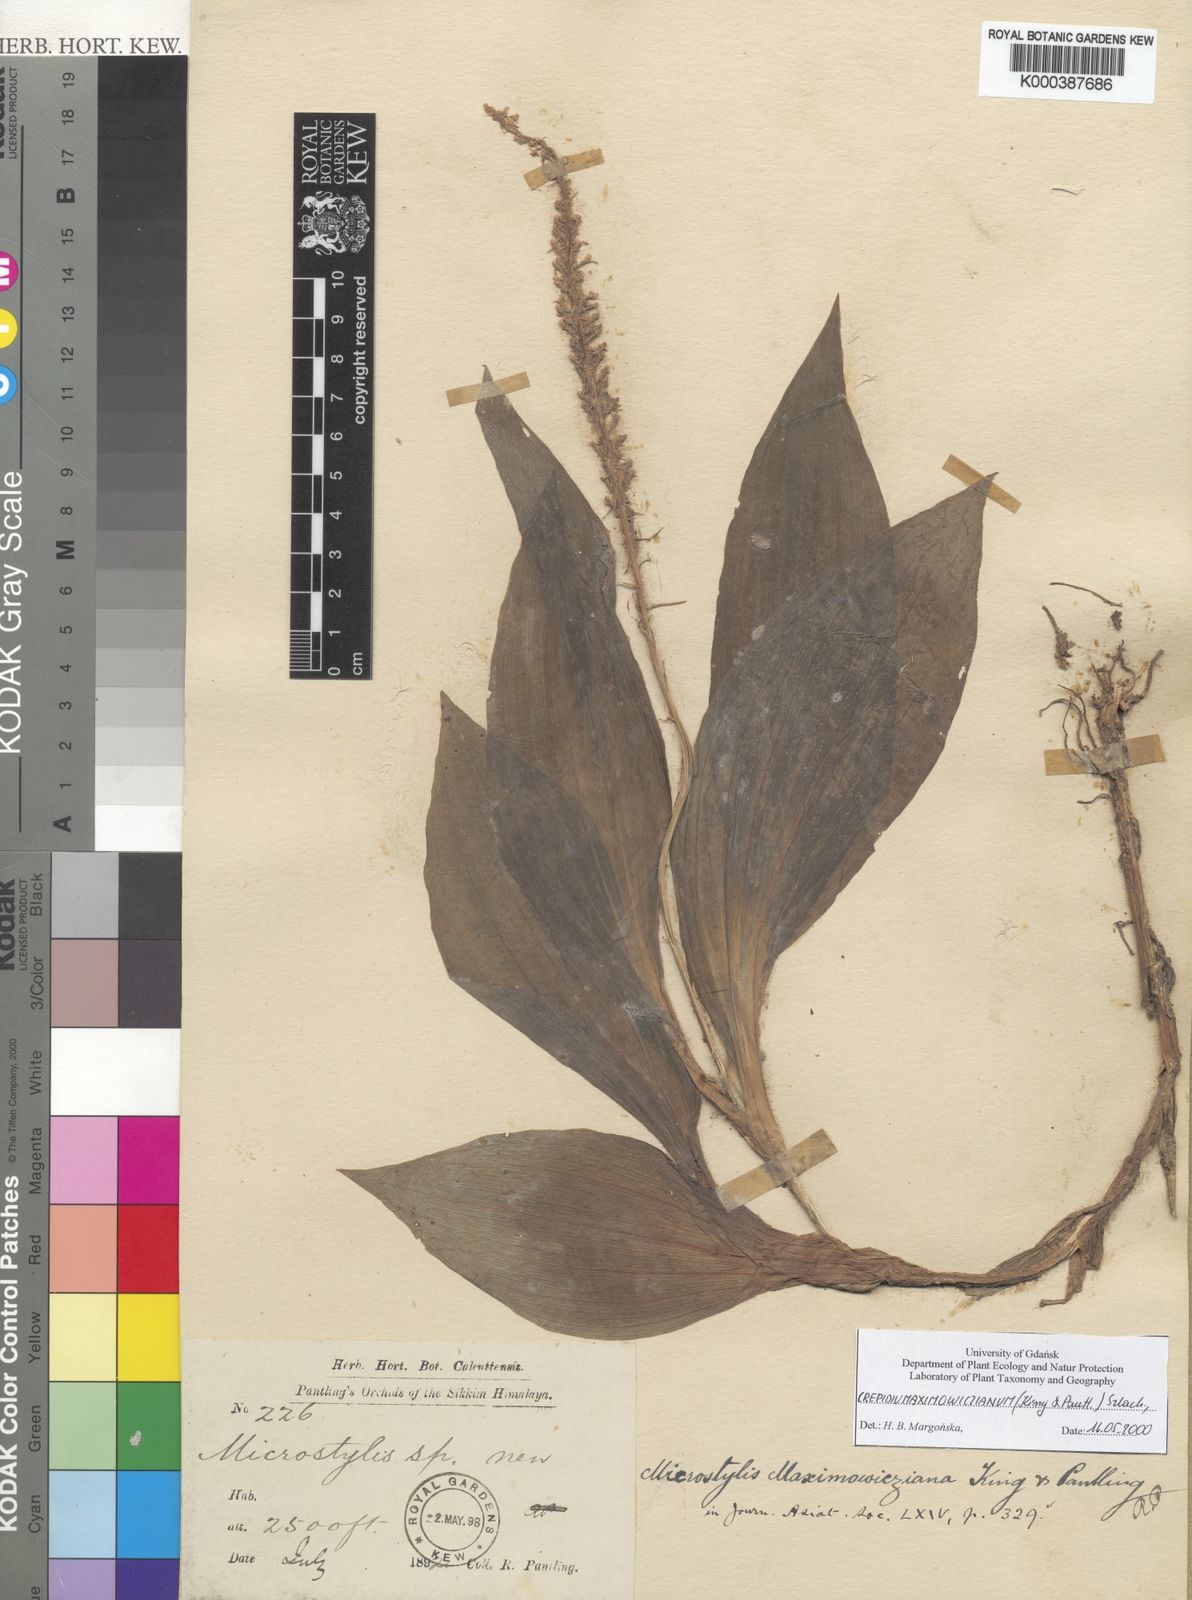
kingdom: Plantae
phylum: Tracheophyta
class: Liliopsida
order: Asparagales
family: Orchidaceae
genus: Crepidium
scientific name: Crepidium maximowiczianum
